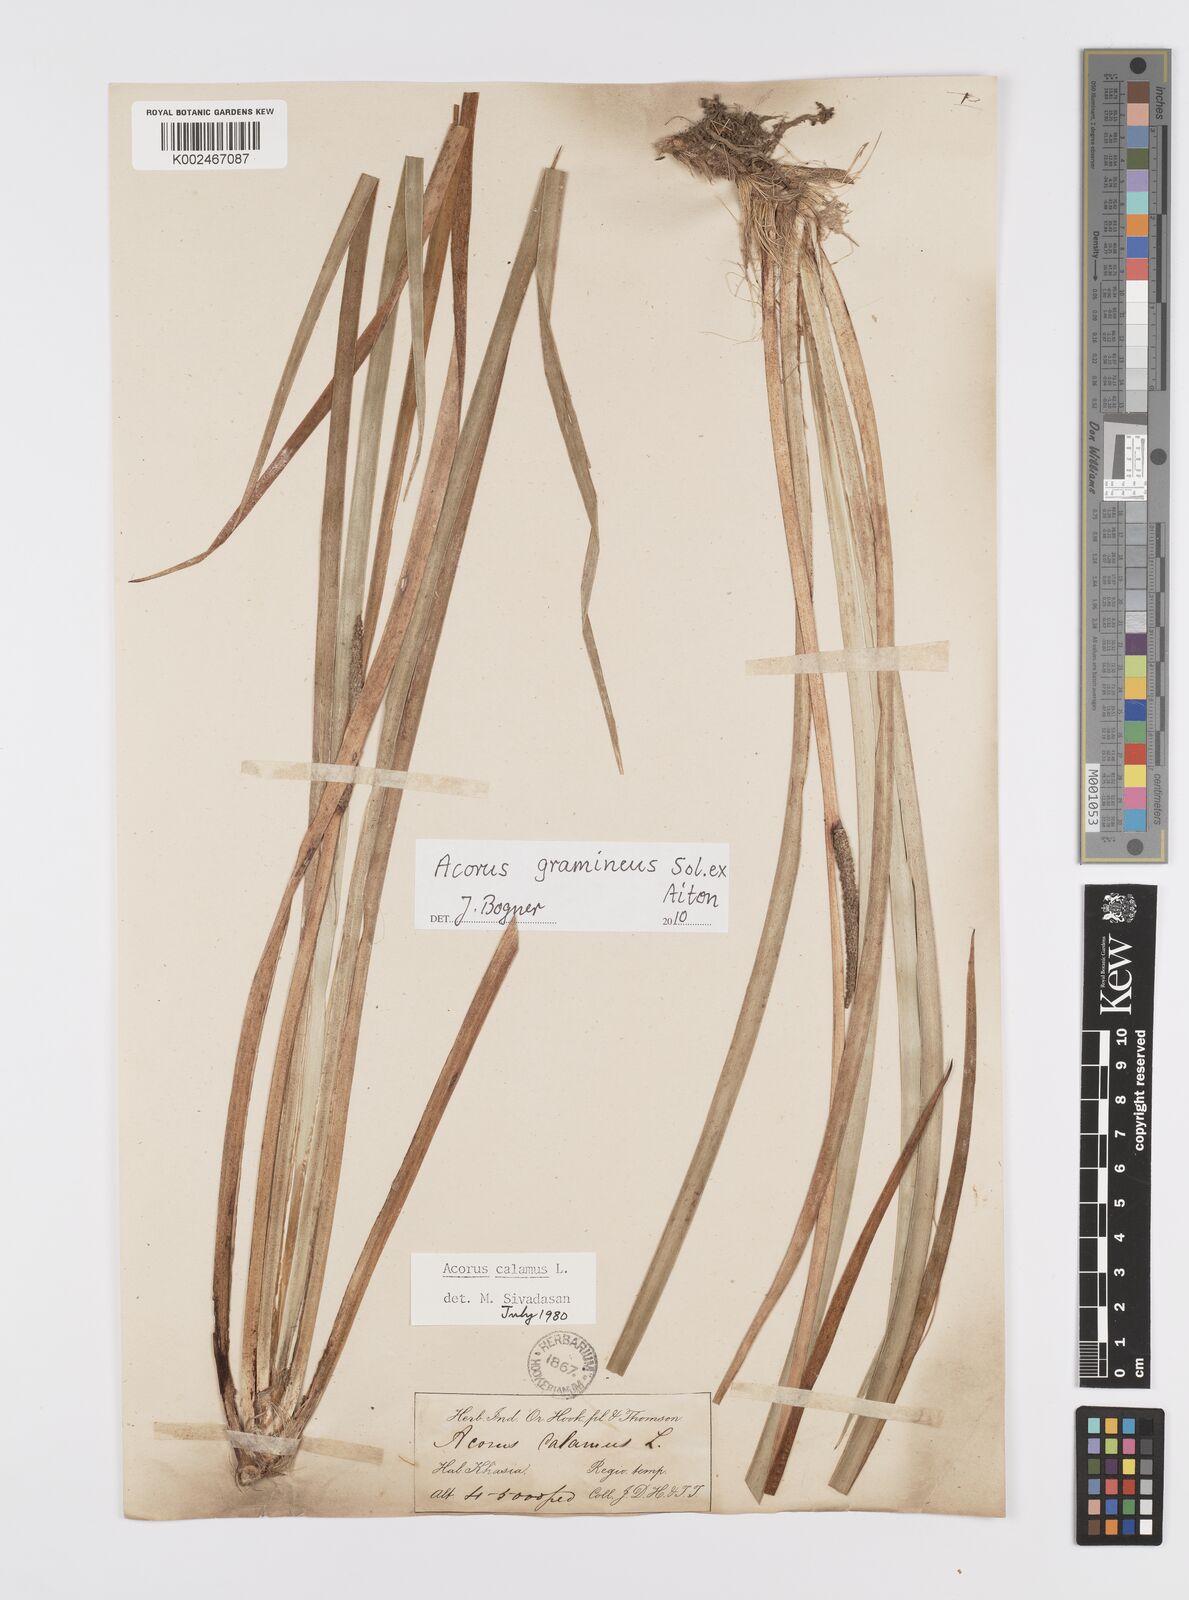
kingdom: Plantae
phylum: Tracheophyta
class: Liliopsida
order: Acorales
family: Acoraceae
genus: Acorus
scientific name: Acorus gramineus
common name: Slender sweet-flag
